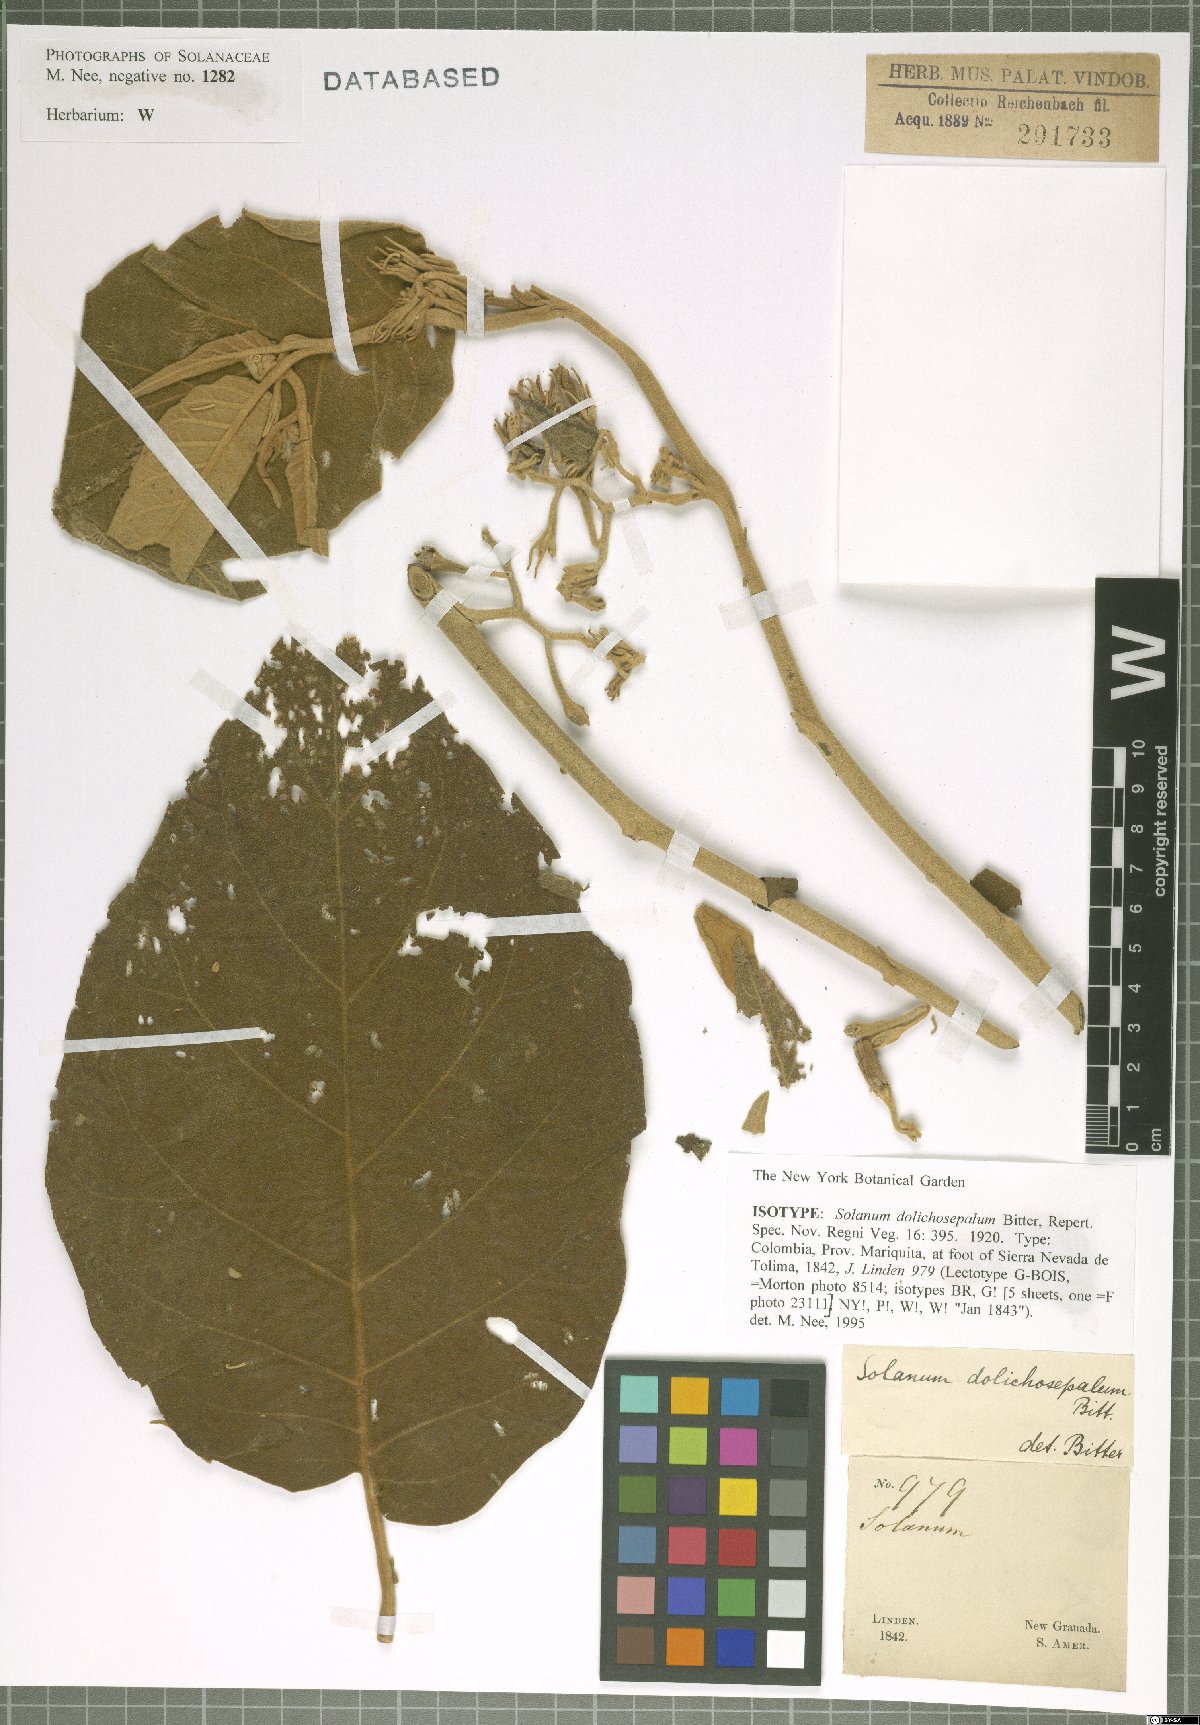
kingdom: Plantae
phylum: Tracheophyta
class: Magnoliopsida
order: Solanales
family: Solanaceae
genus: Solanum
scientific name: Solanum dolichosepalum
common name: Longsepal nightshade
